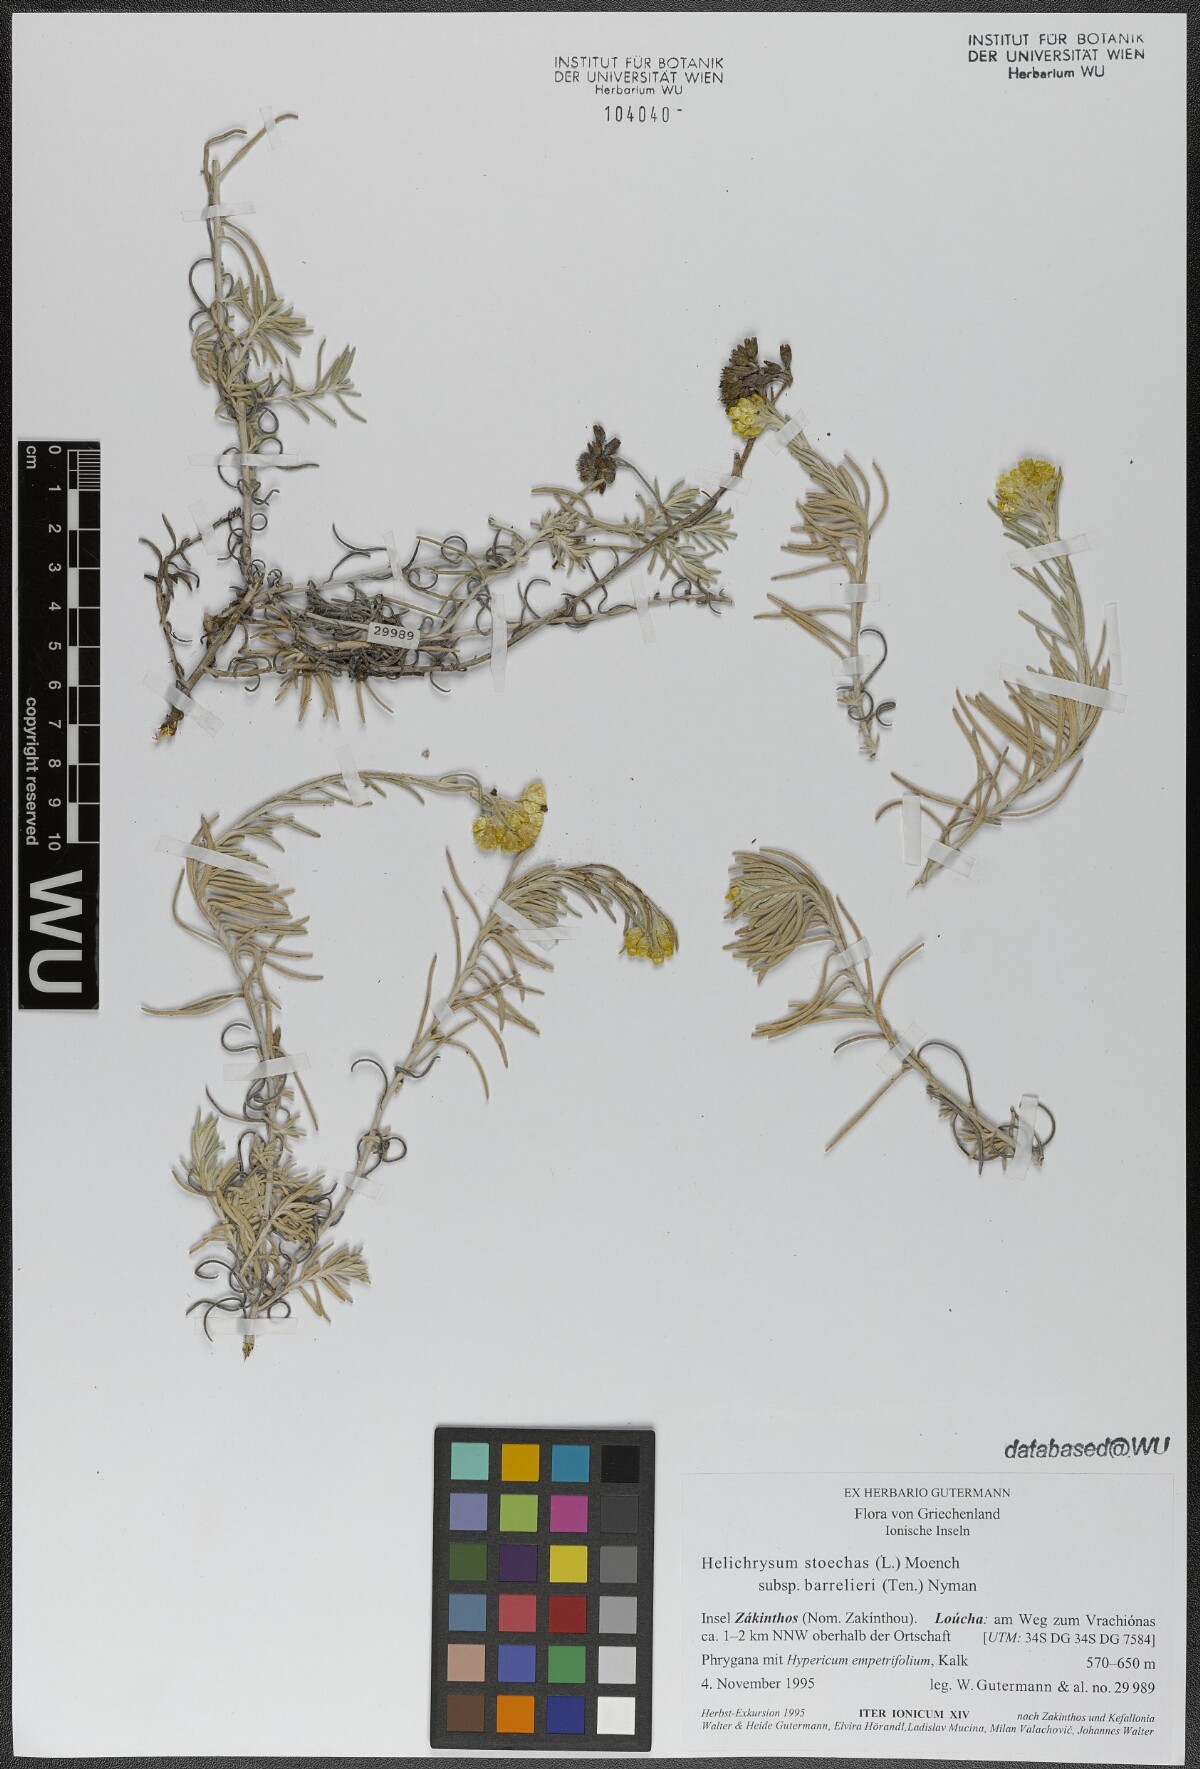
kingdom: Plantae
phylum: Tracheophyta
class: Magnoliopsida
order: Asterales
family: Asteraceae
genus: Helichrysum
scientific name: Helichrysum stoechas
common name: Goldilocks
